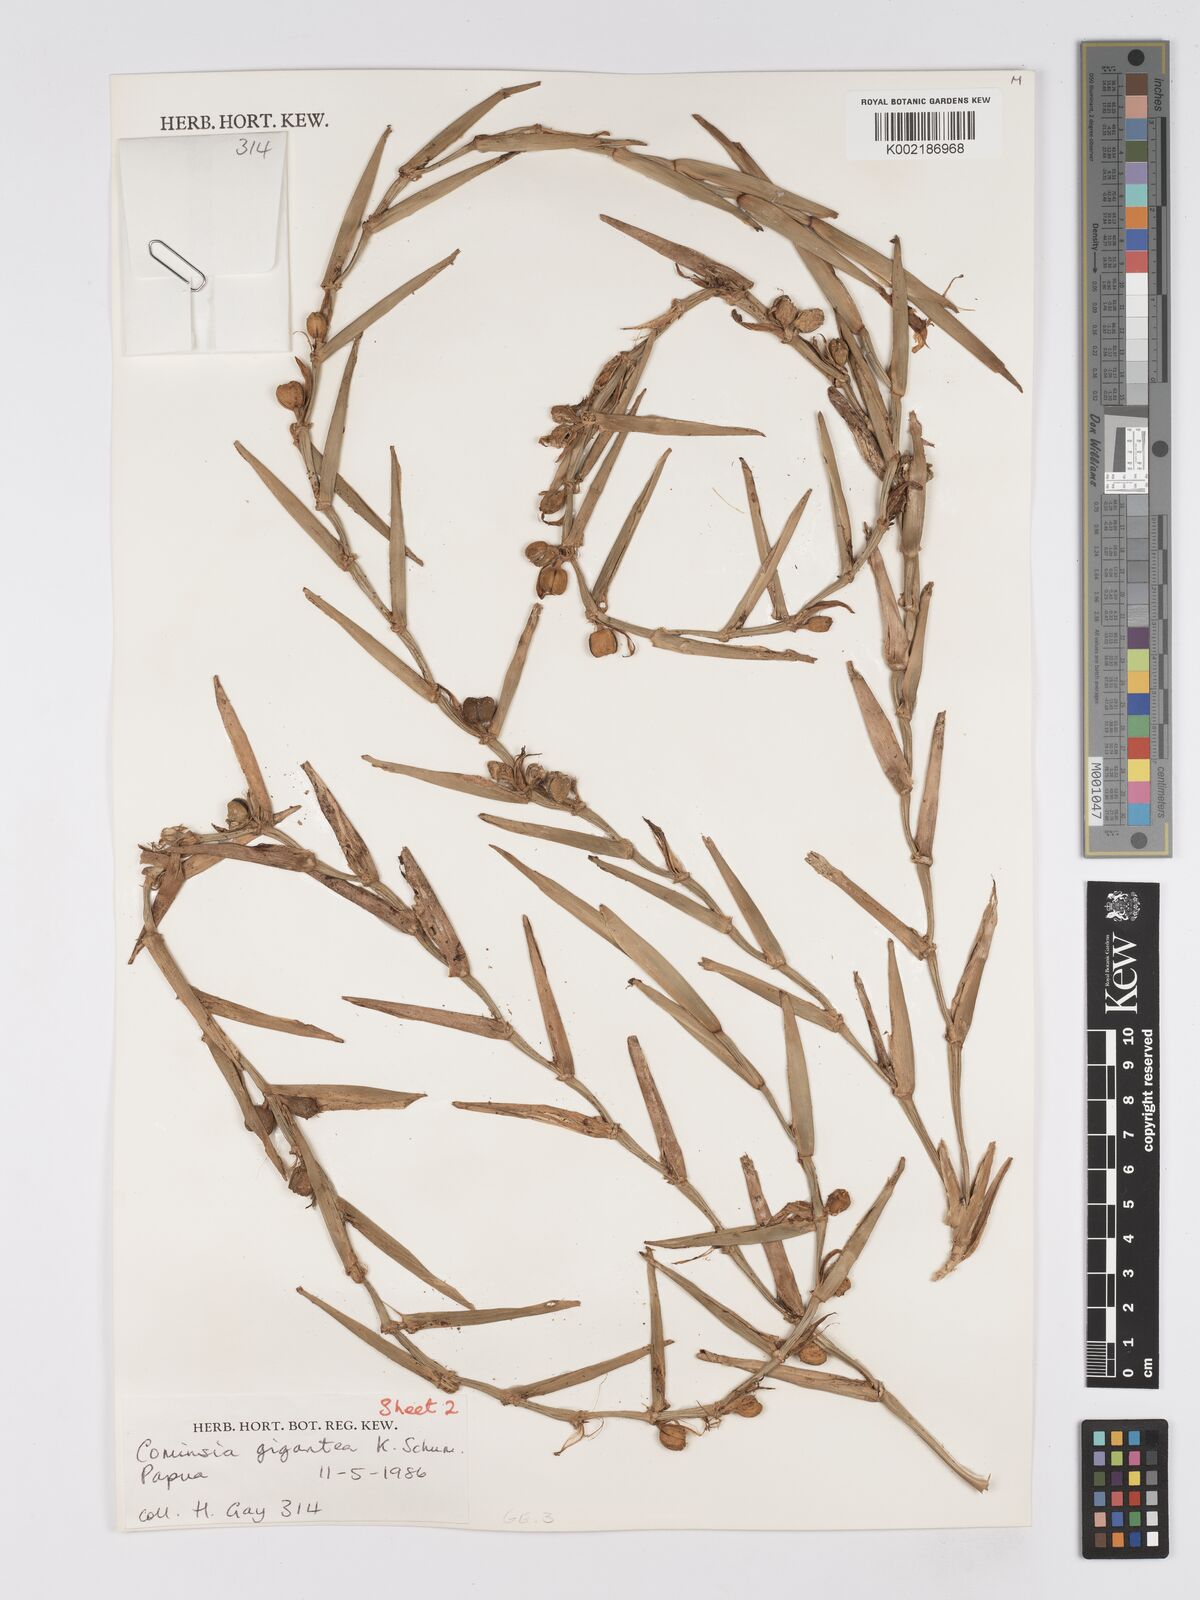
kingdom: Plantae
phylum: Tracheophyta
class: Liliopsida
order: Zingiberales
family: Marantaceae
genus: Phrynium
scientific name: Phrynium giganteum
